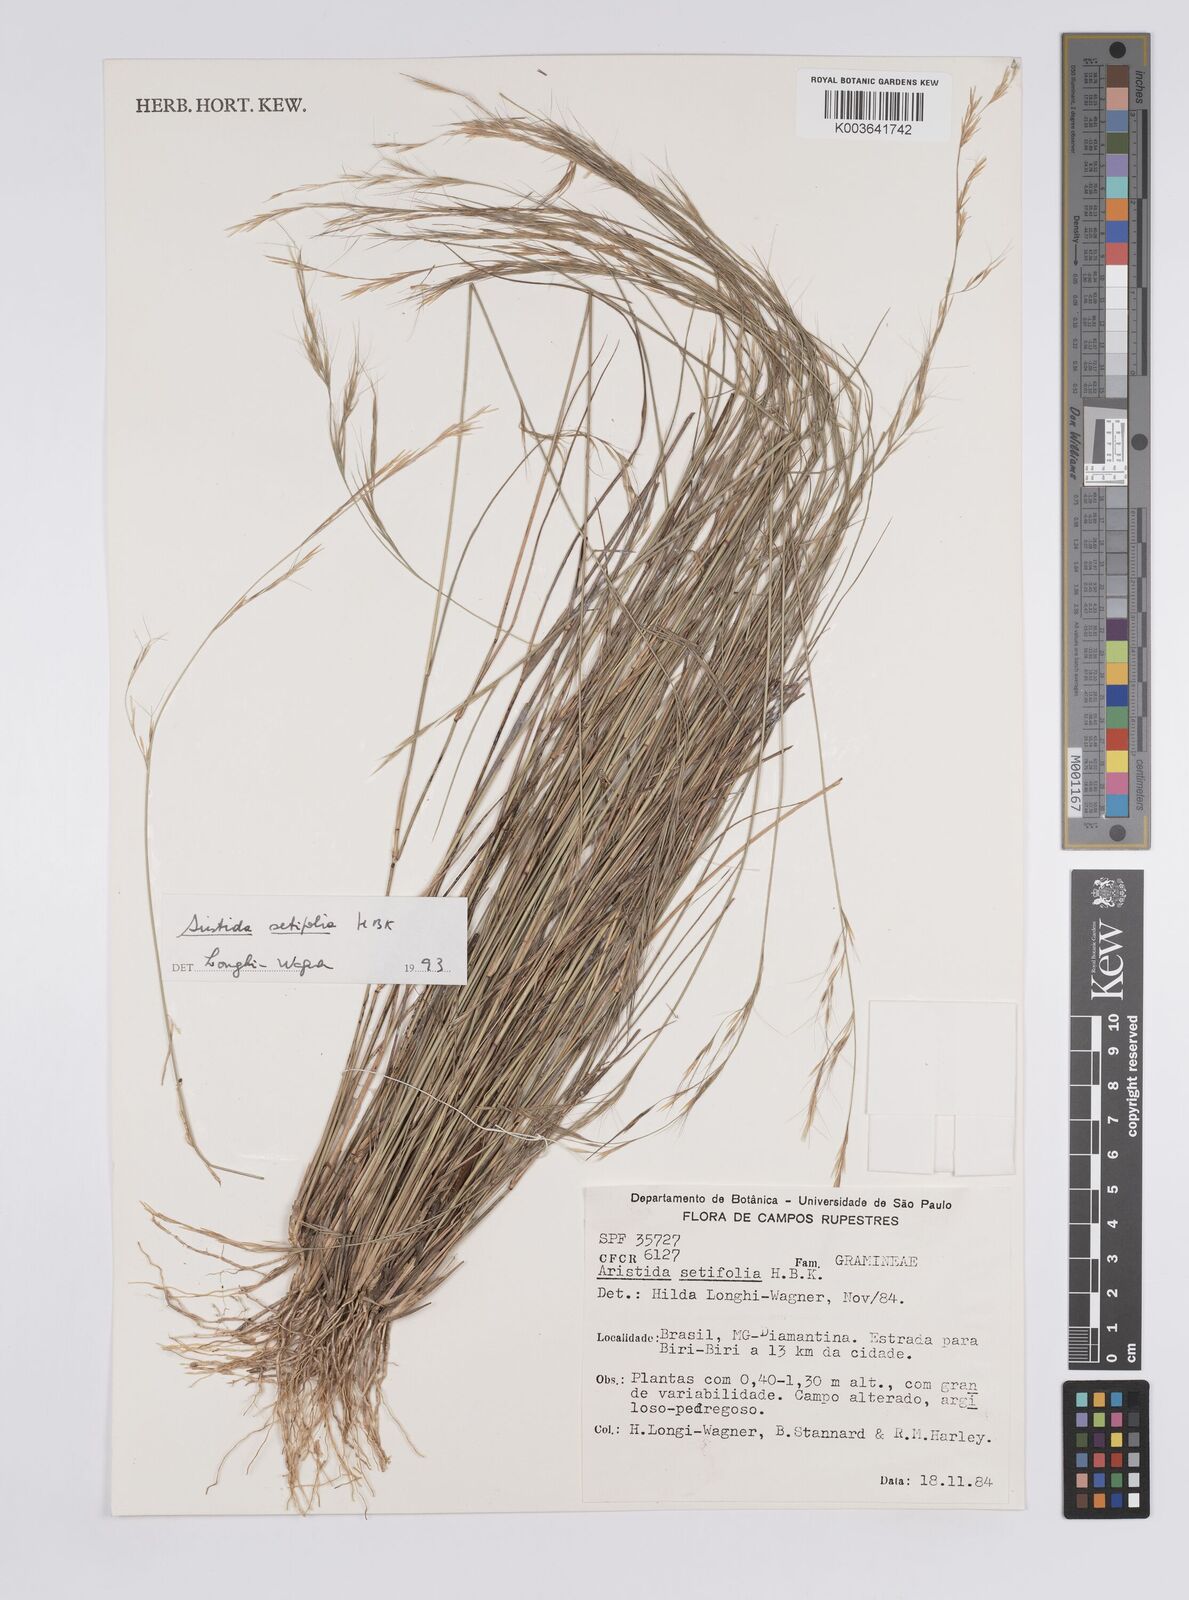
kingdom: Plantae
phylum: Tracheophyta
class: Liliopsida
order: Poales
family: Poaceae
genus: Aristida
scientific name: Aristida setifolia
